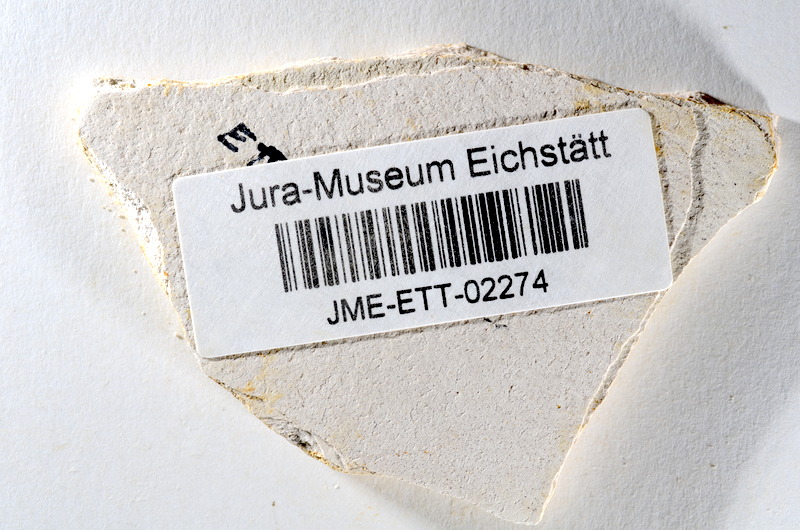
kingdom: Animalia
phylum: Chordata
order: Salmoniformes
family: Orthogonikleithridae
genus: Orthogonikleithrus
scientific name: Orthogonikleithrus hoelli
